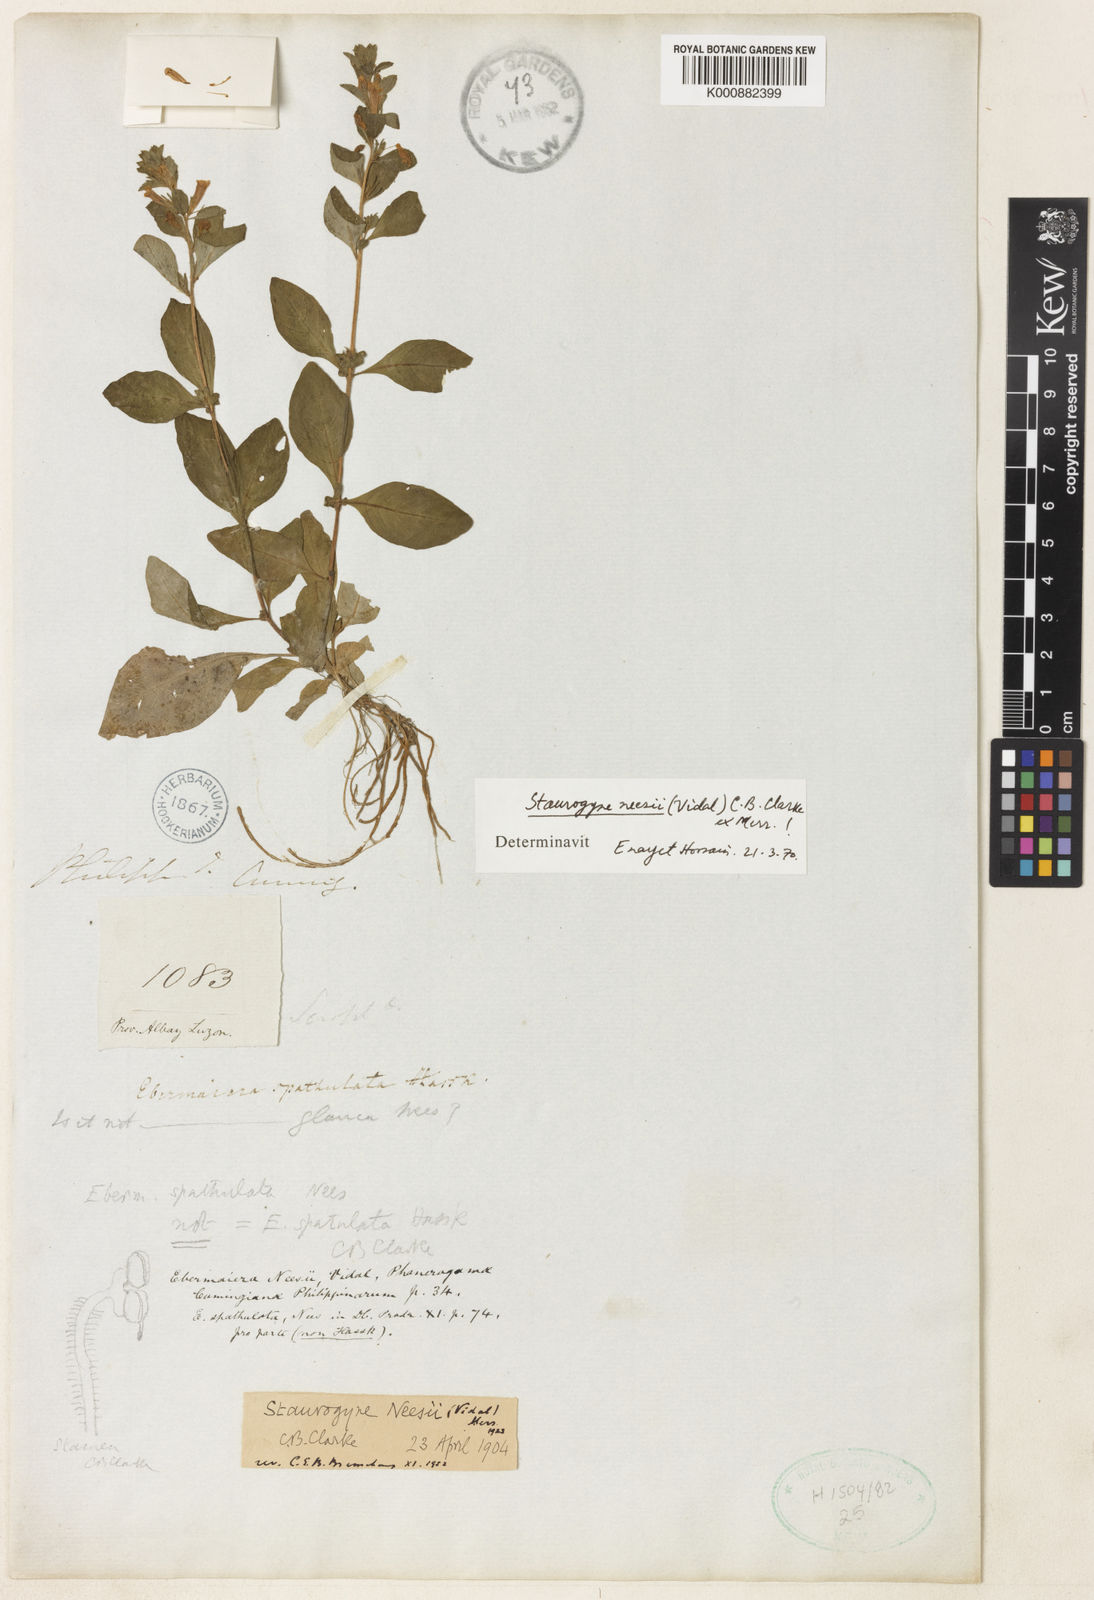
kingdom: Plantae
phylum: Tracheophyta
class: Magnoliopsida
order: Lamiales
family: Acanthaceae
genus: Staurogyne
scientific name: Staurogyne neesii
